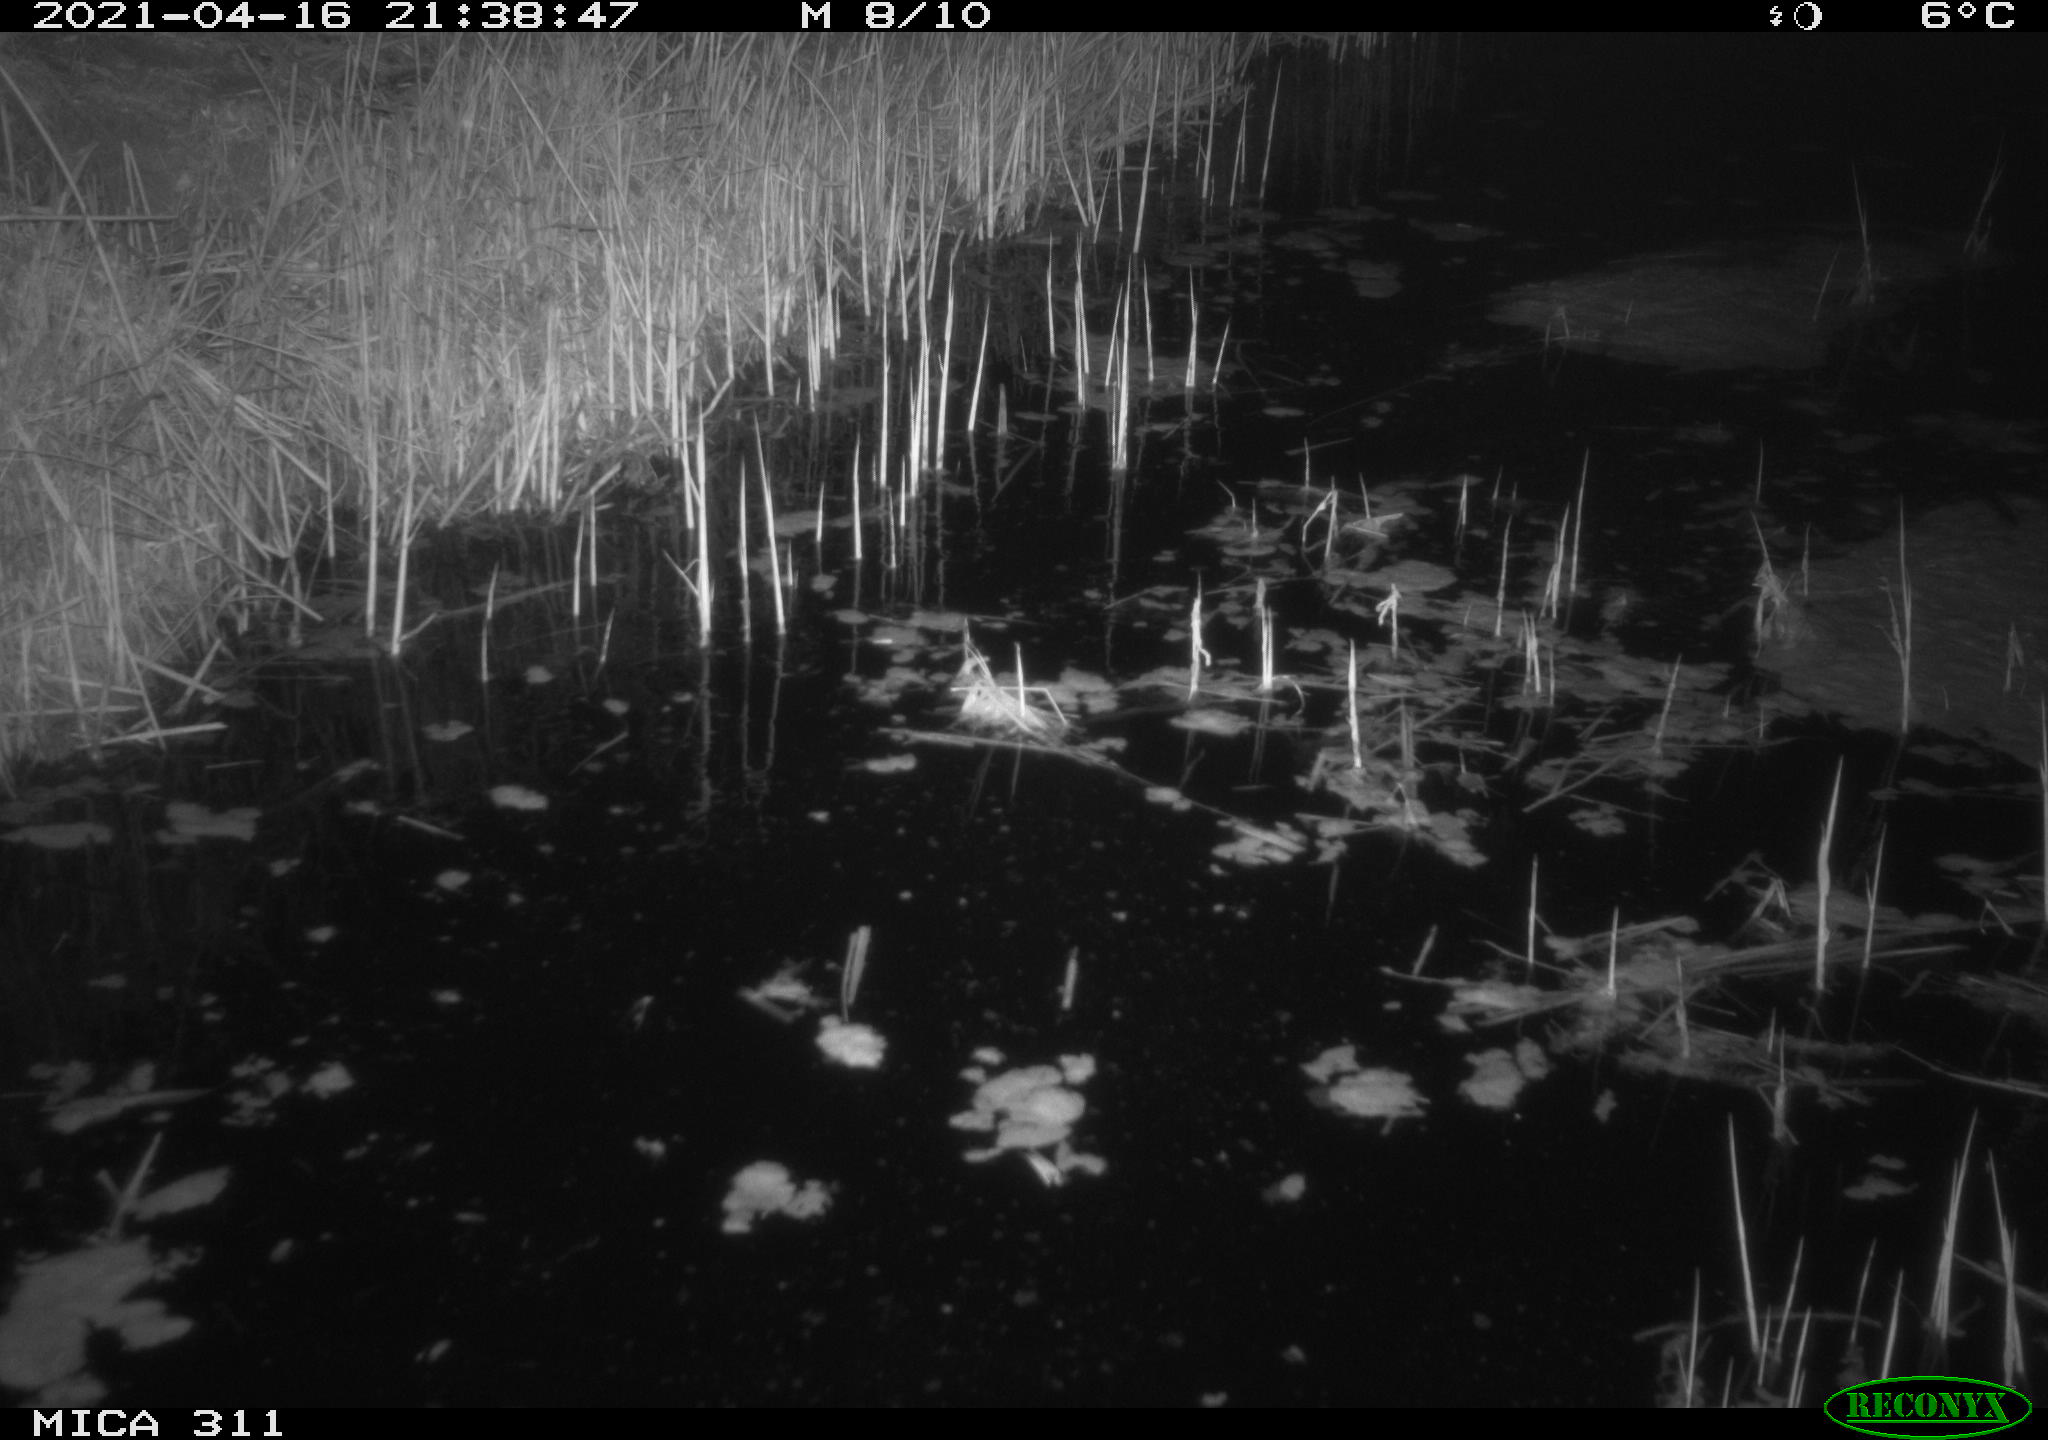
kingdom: Animalia
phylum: Chordata
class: Mammalia
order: Rodentia
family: Cricetidae
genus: Ondatra
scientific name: Ondatra zibethicus
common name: Muskrat
